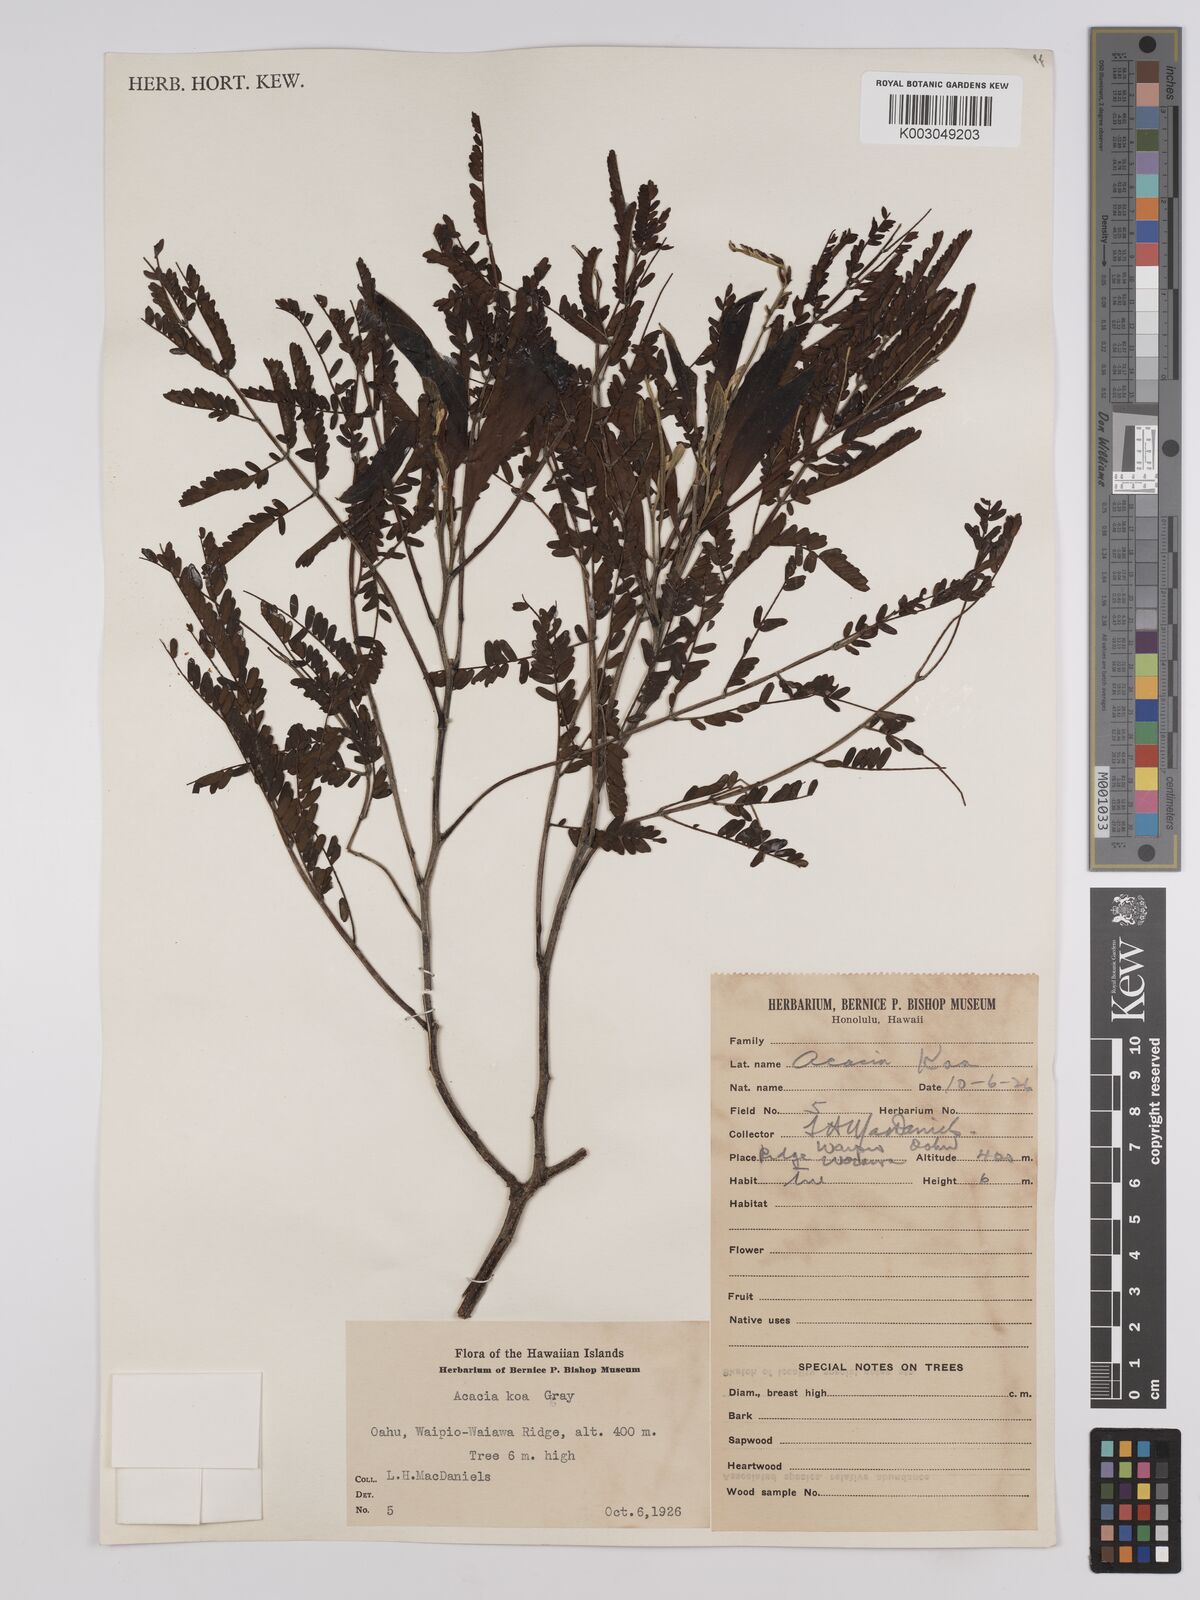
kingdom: Plantae
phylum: Tracheophyta
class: Magnoliopsida
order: Fabales
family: Fabaceae
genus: Acacia
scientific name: Acacia koa
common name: Gray koa
